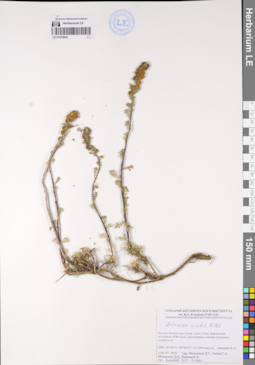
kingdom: Plantae
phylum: Tracheophyta
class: Magnoliopsida
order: Asterales
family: Asteraceae
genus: Artemisia
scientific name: Artemisia viridis
